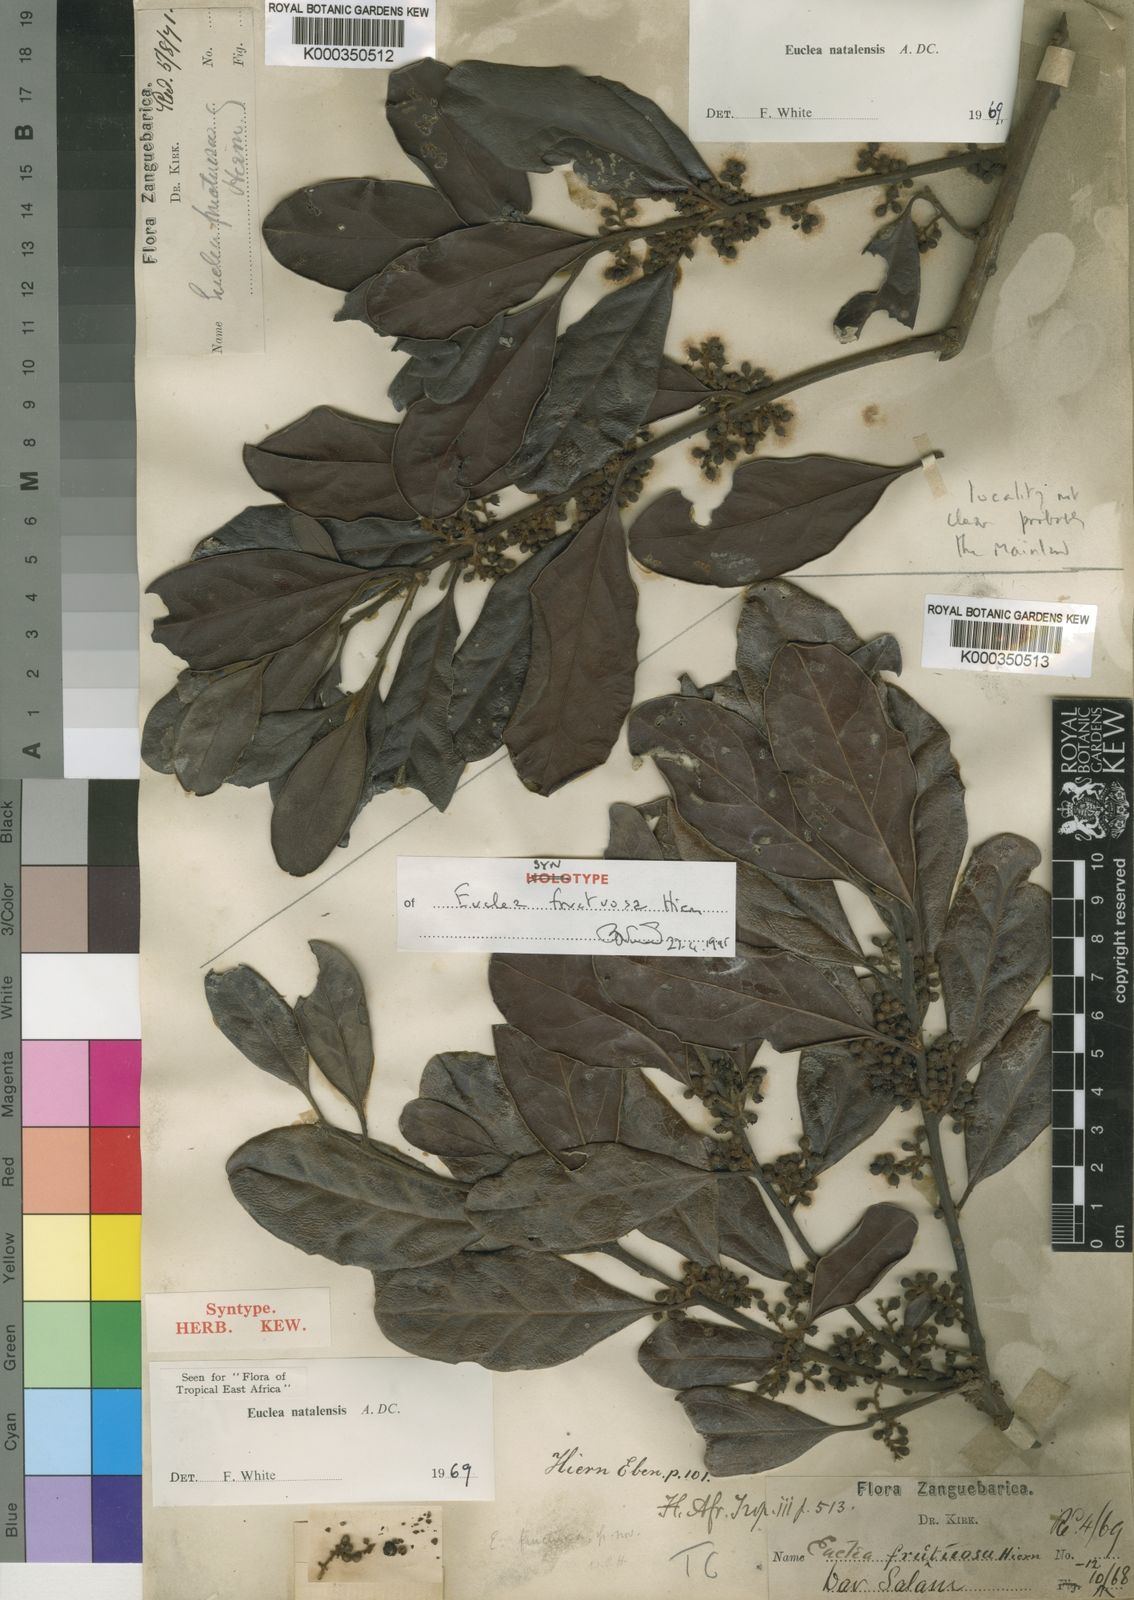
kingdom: Plantae
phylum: Tracheophyta
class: Magnoliopsida
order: Ericales
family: Ebenaceae
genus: Euclea
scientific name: Euclea natalensis
